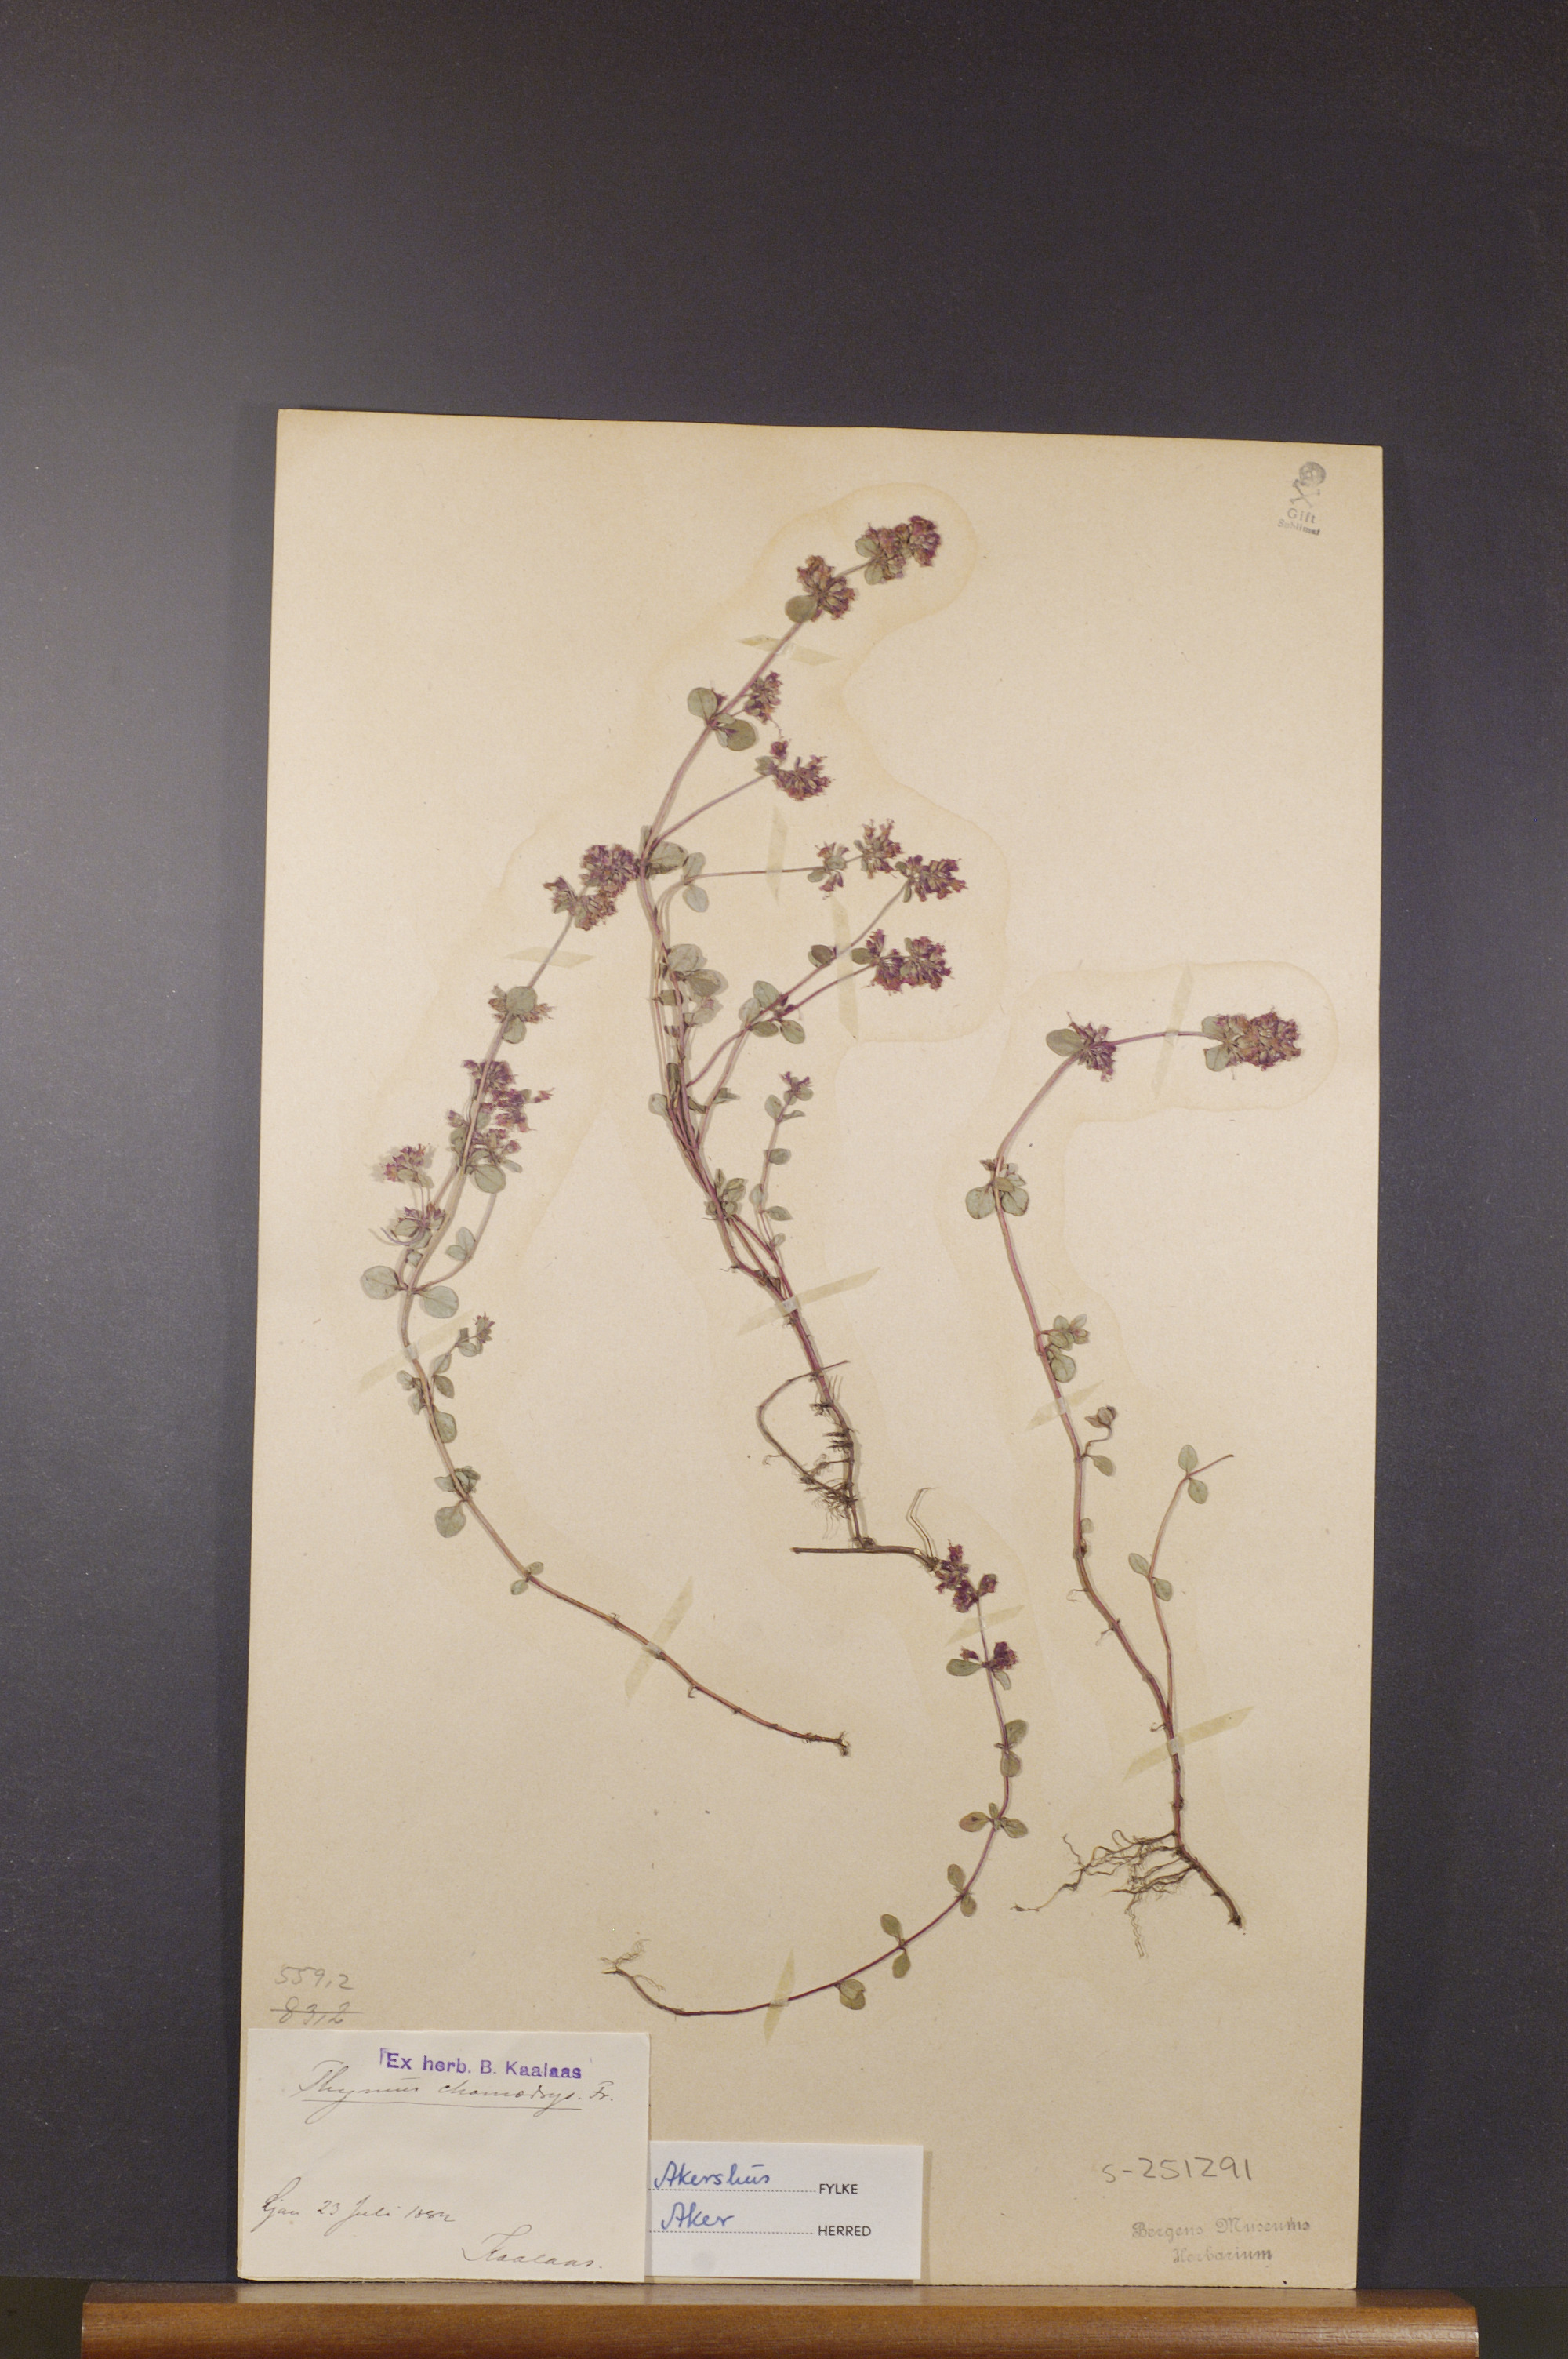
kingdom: Plantae
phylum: Tracheophyta
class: Magnoliopsida
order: Lamiales
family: Lamiaceae
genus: Thymus
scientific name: Thymus pulegioides
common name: Large thyme
